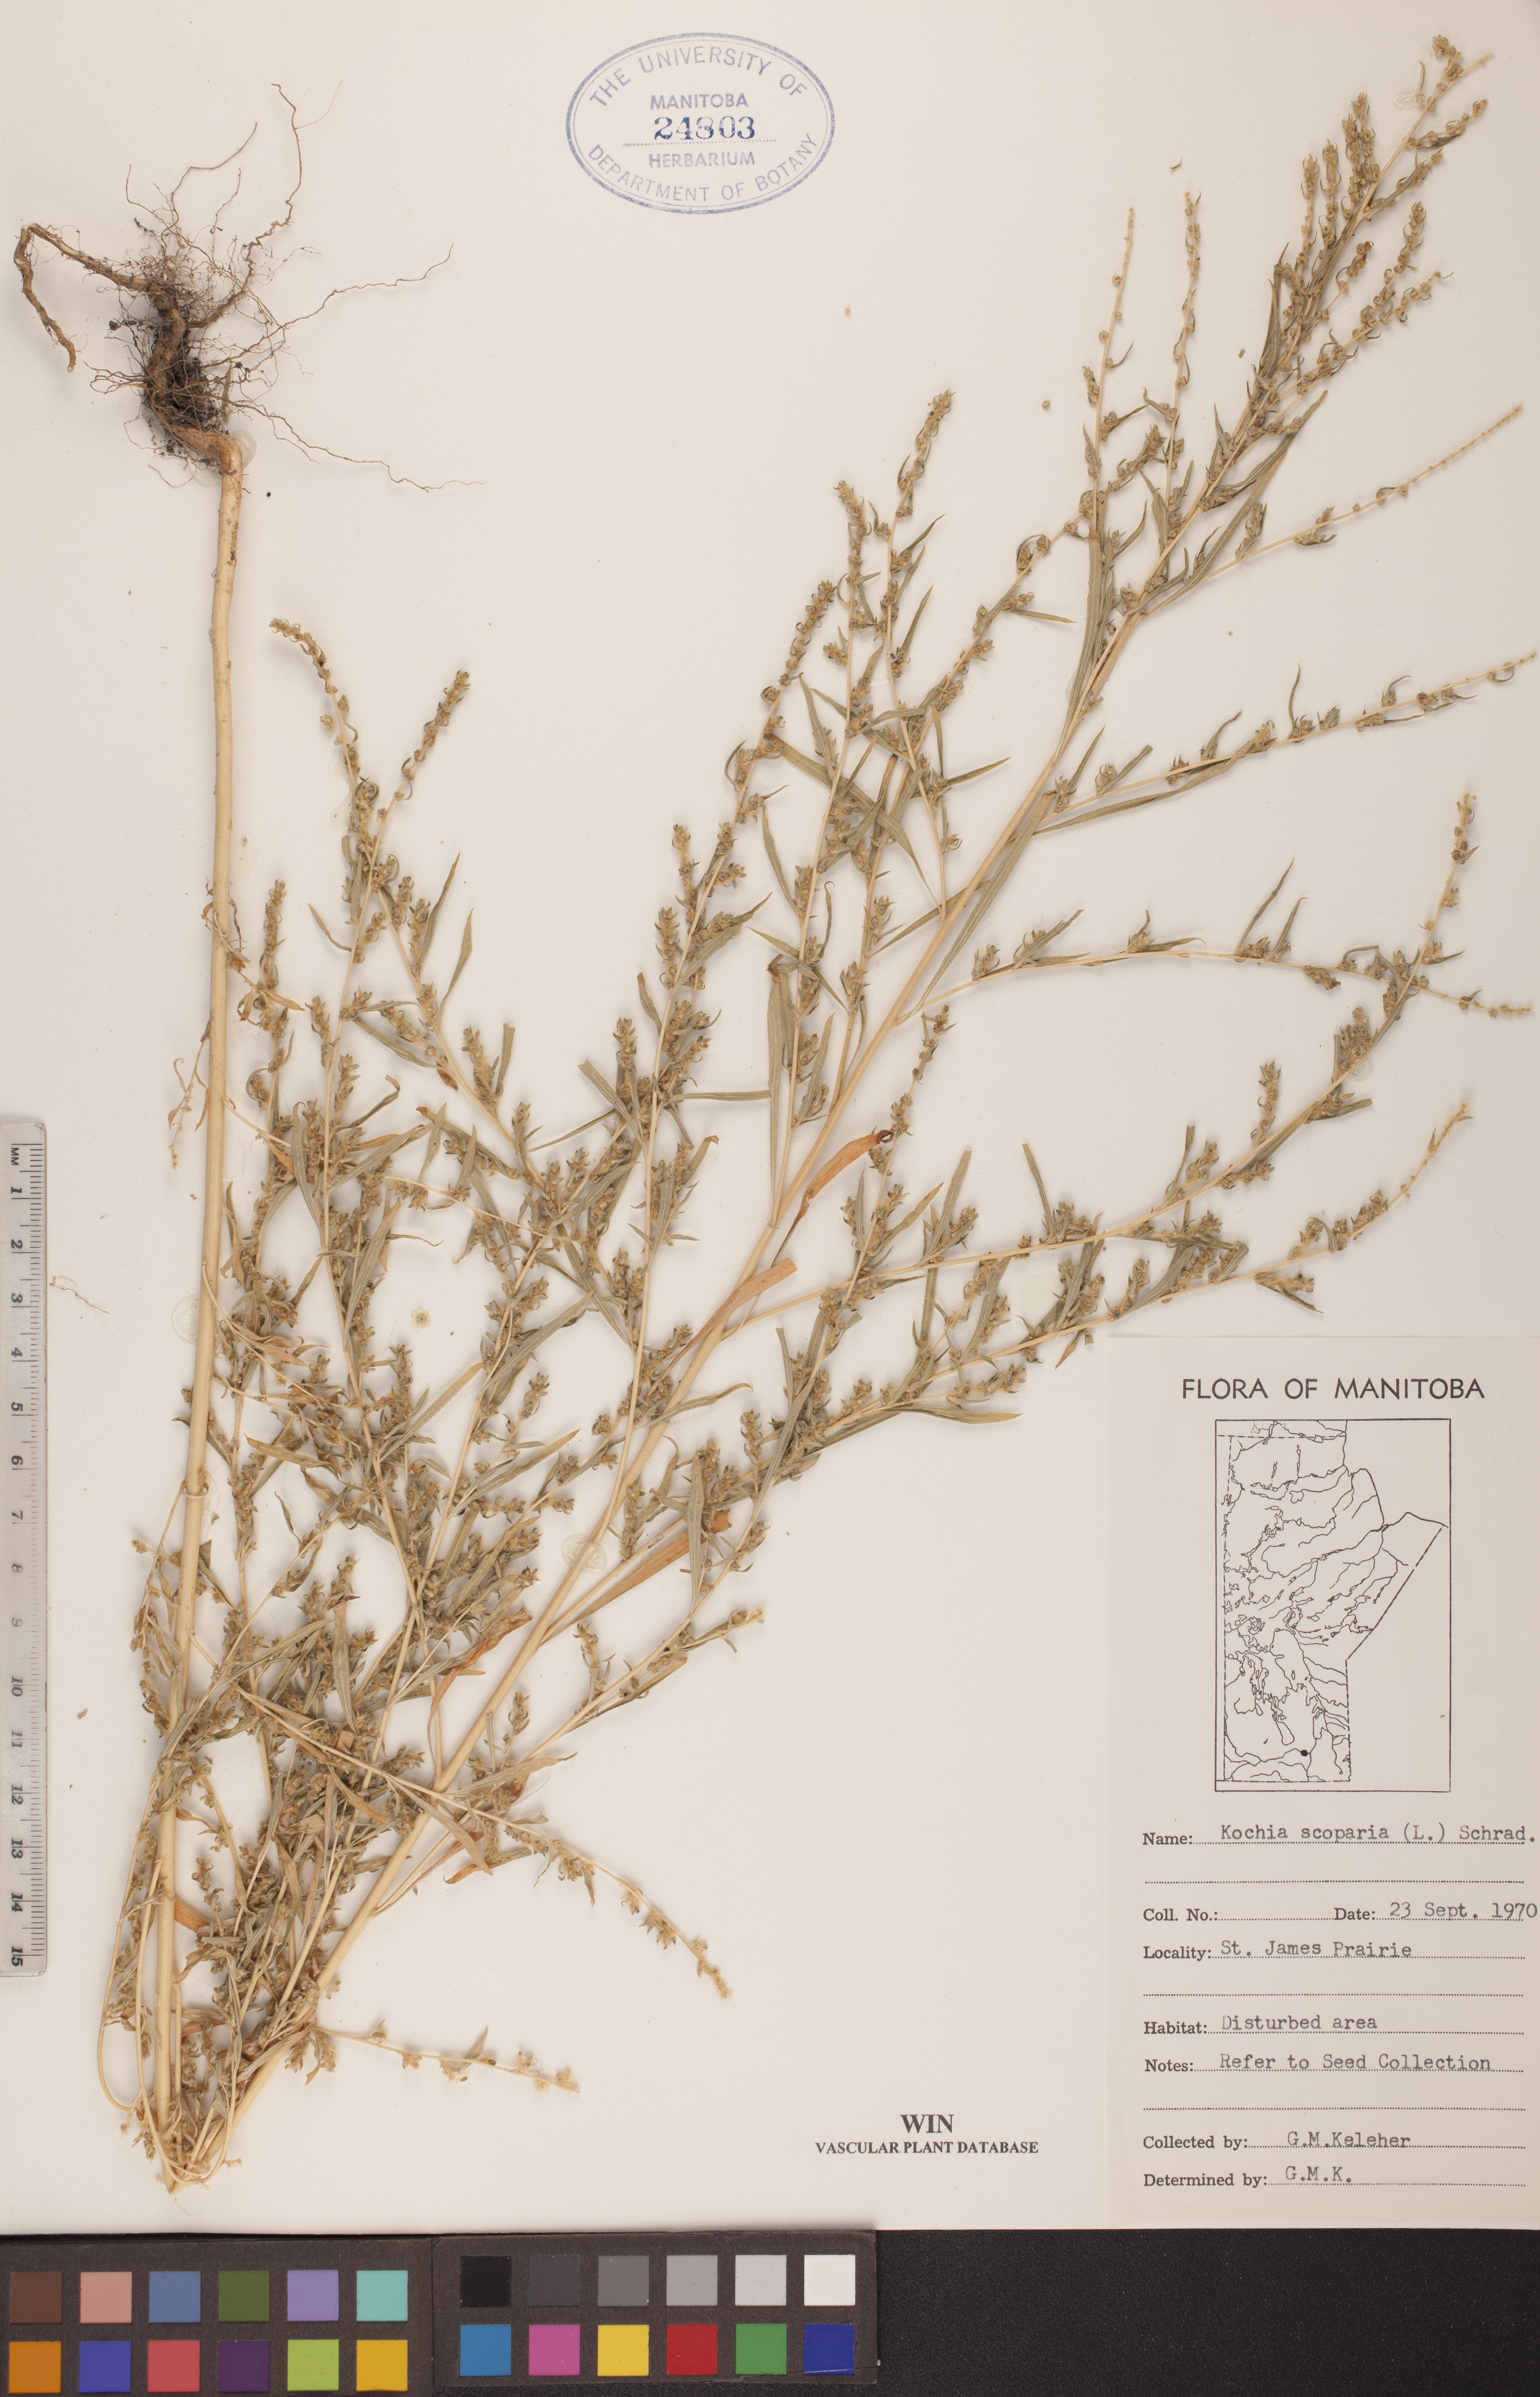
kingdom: Plantae
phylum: Tracheophyta
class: Magnoliopsida
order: Caryophyllales
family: Amaranthaceae
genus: Bassia
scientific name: Bassia scoparia
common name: Belvedere
